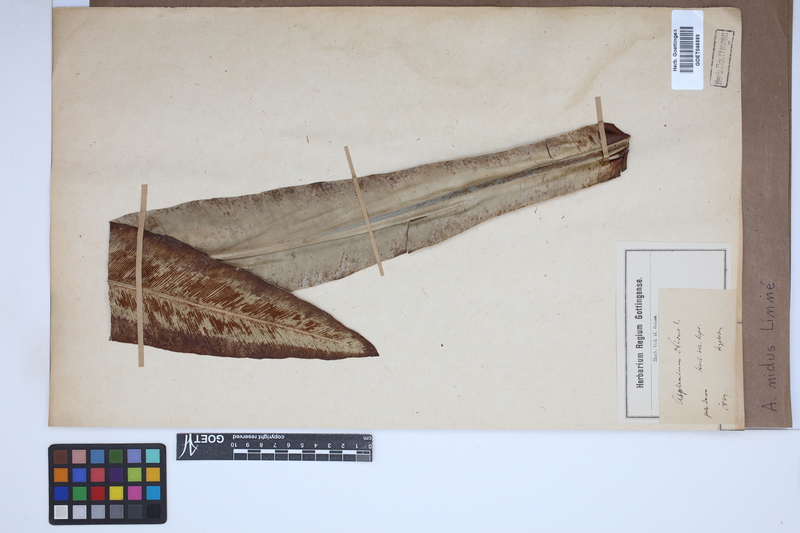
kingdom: Plantae
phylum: Tracheophyta
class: Polypodiopsida
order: Polypodiales
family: Aspleniaceae
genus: Asplenium
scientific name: Asplenium nidus
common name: Bird's-nest fern
